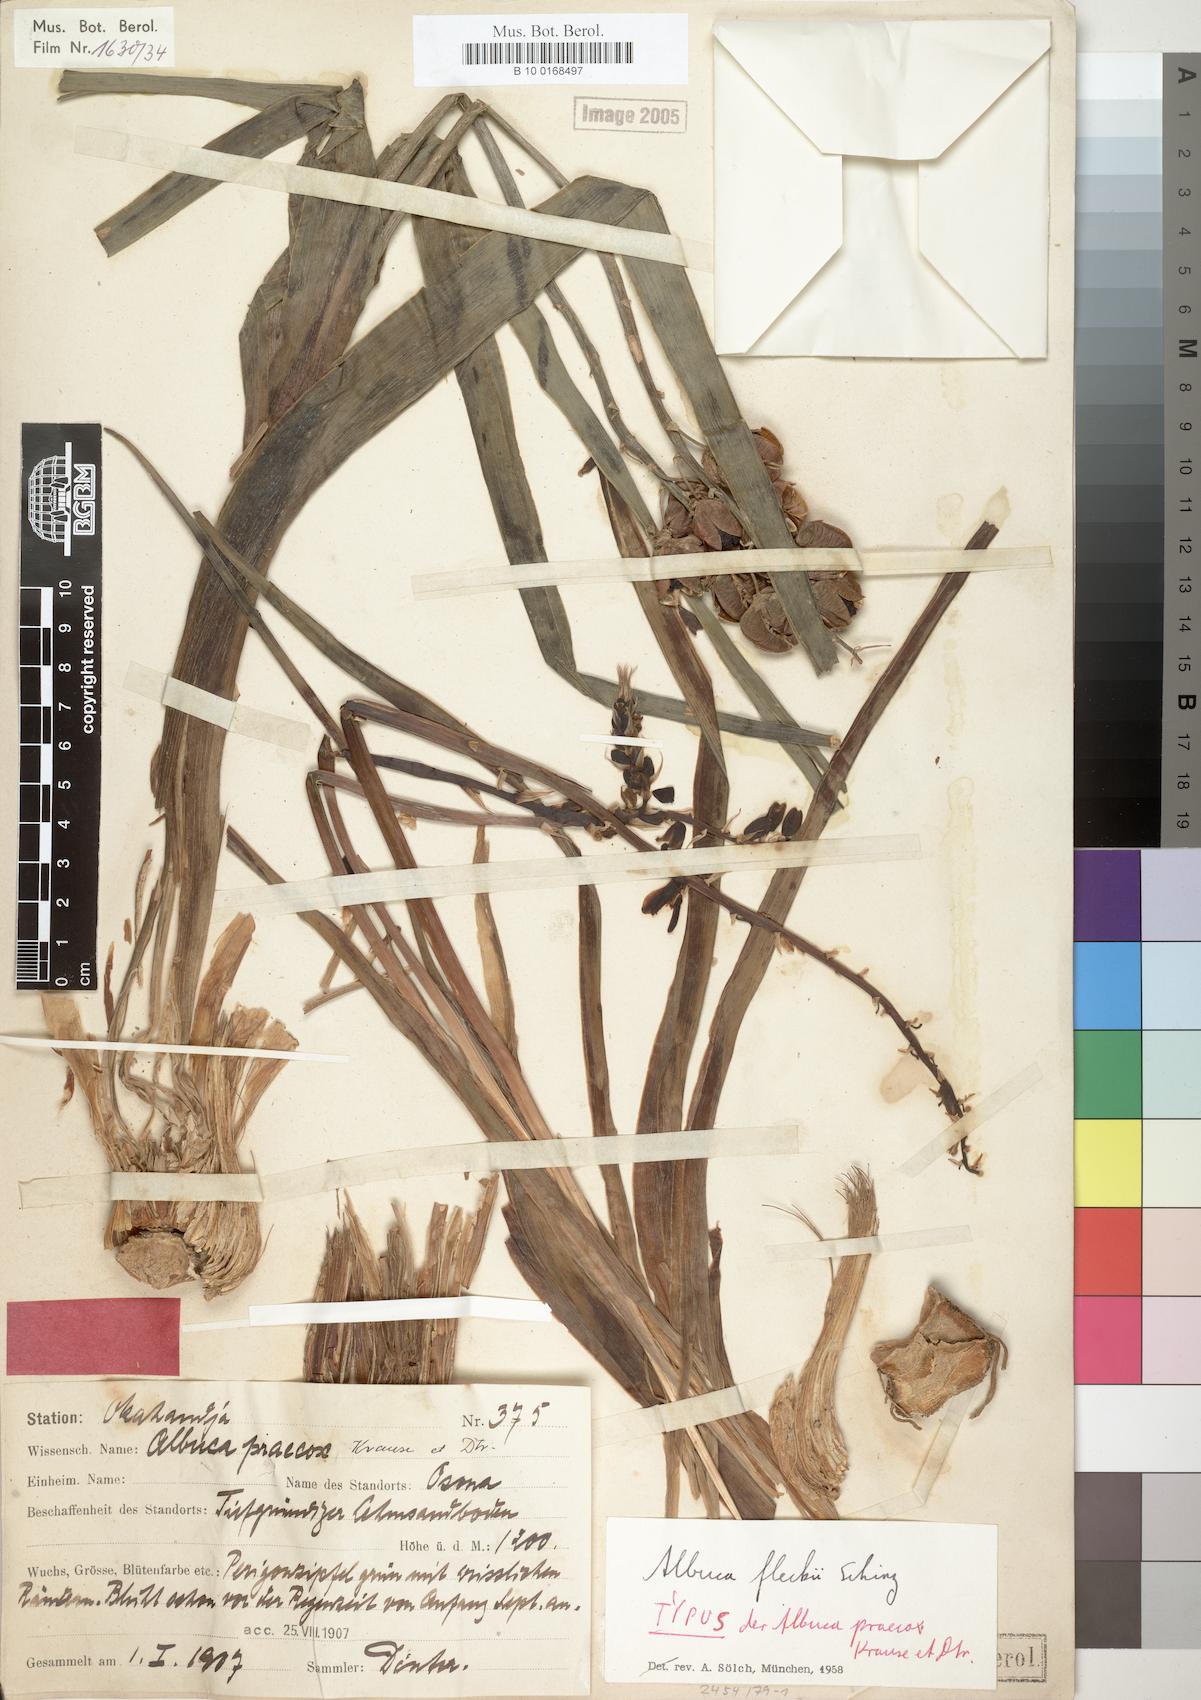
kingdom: Plantae
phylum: Tracheophyta
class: Liliopsida
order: Asparagales
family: Asparagaceae
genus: Albuca
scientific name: Albuca abyssinica
